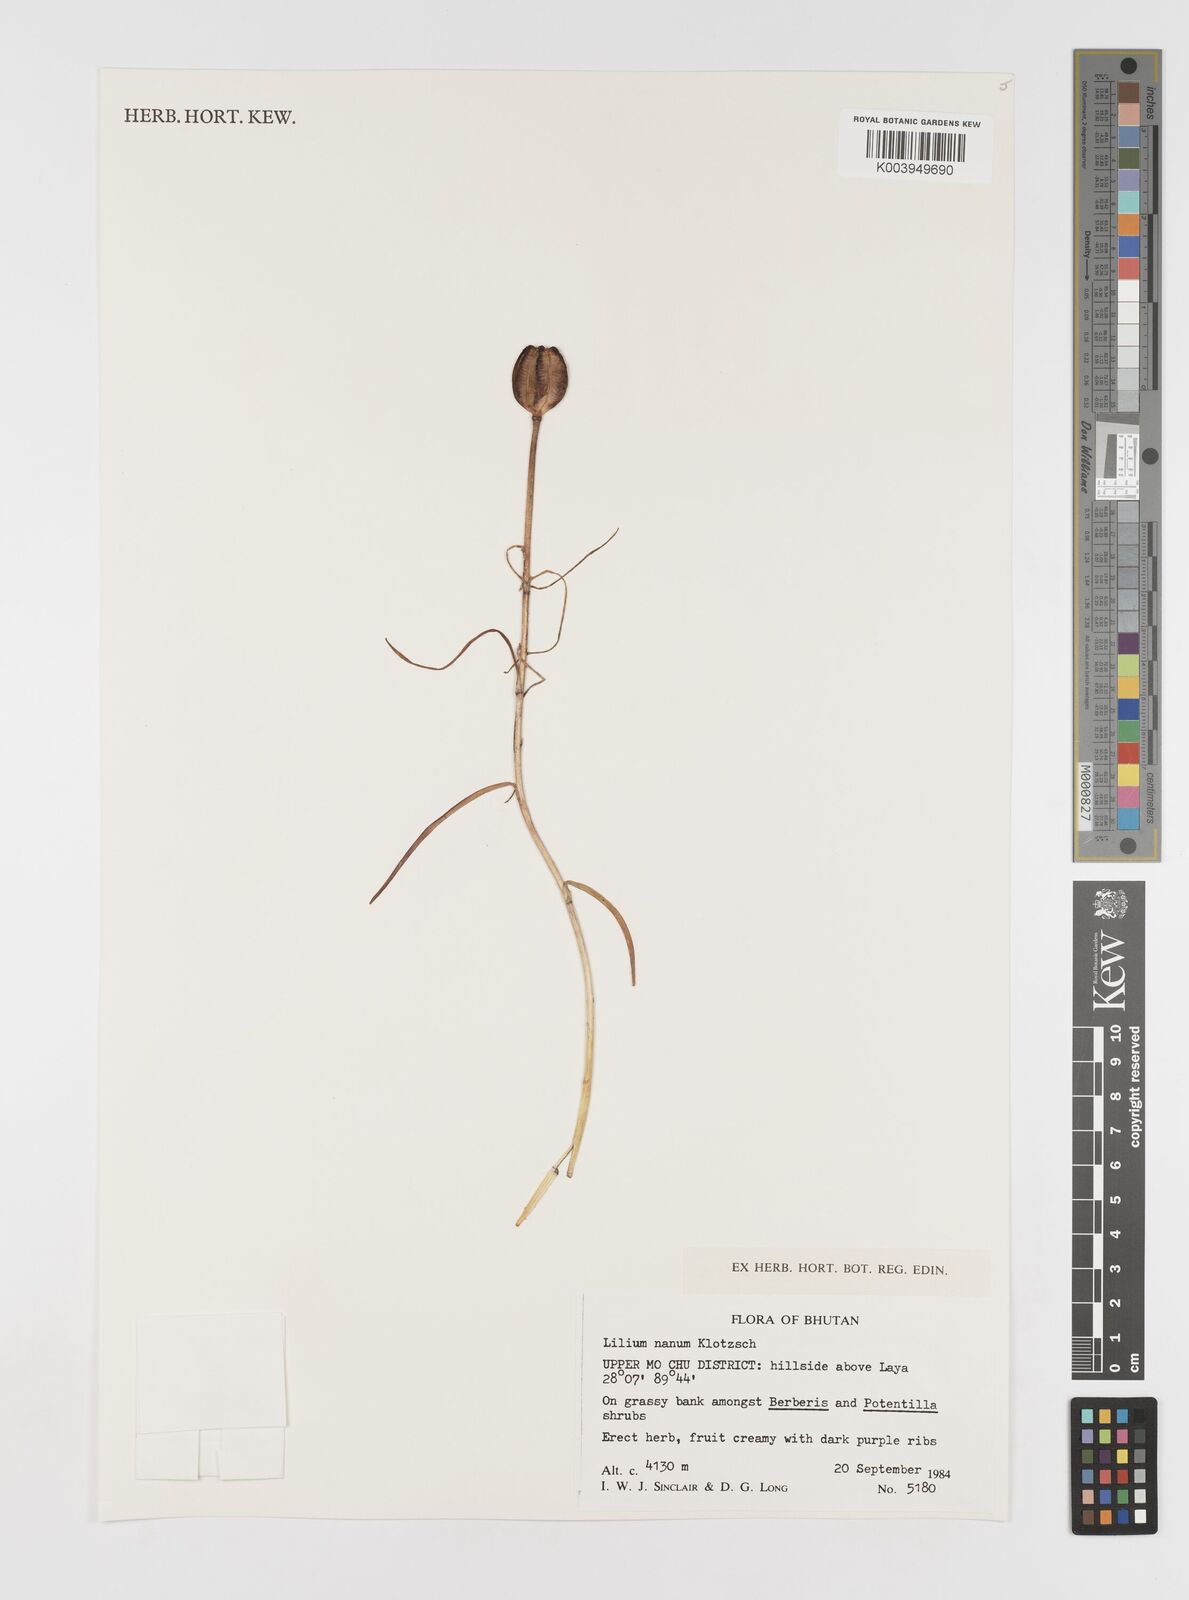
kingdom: Plantae
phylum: Tracheophyta
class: Liliopsida
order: Liliales
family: Liliaceae
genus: Lilium
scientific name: Lilium nanum
